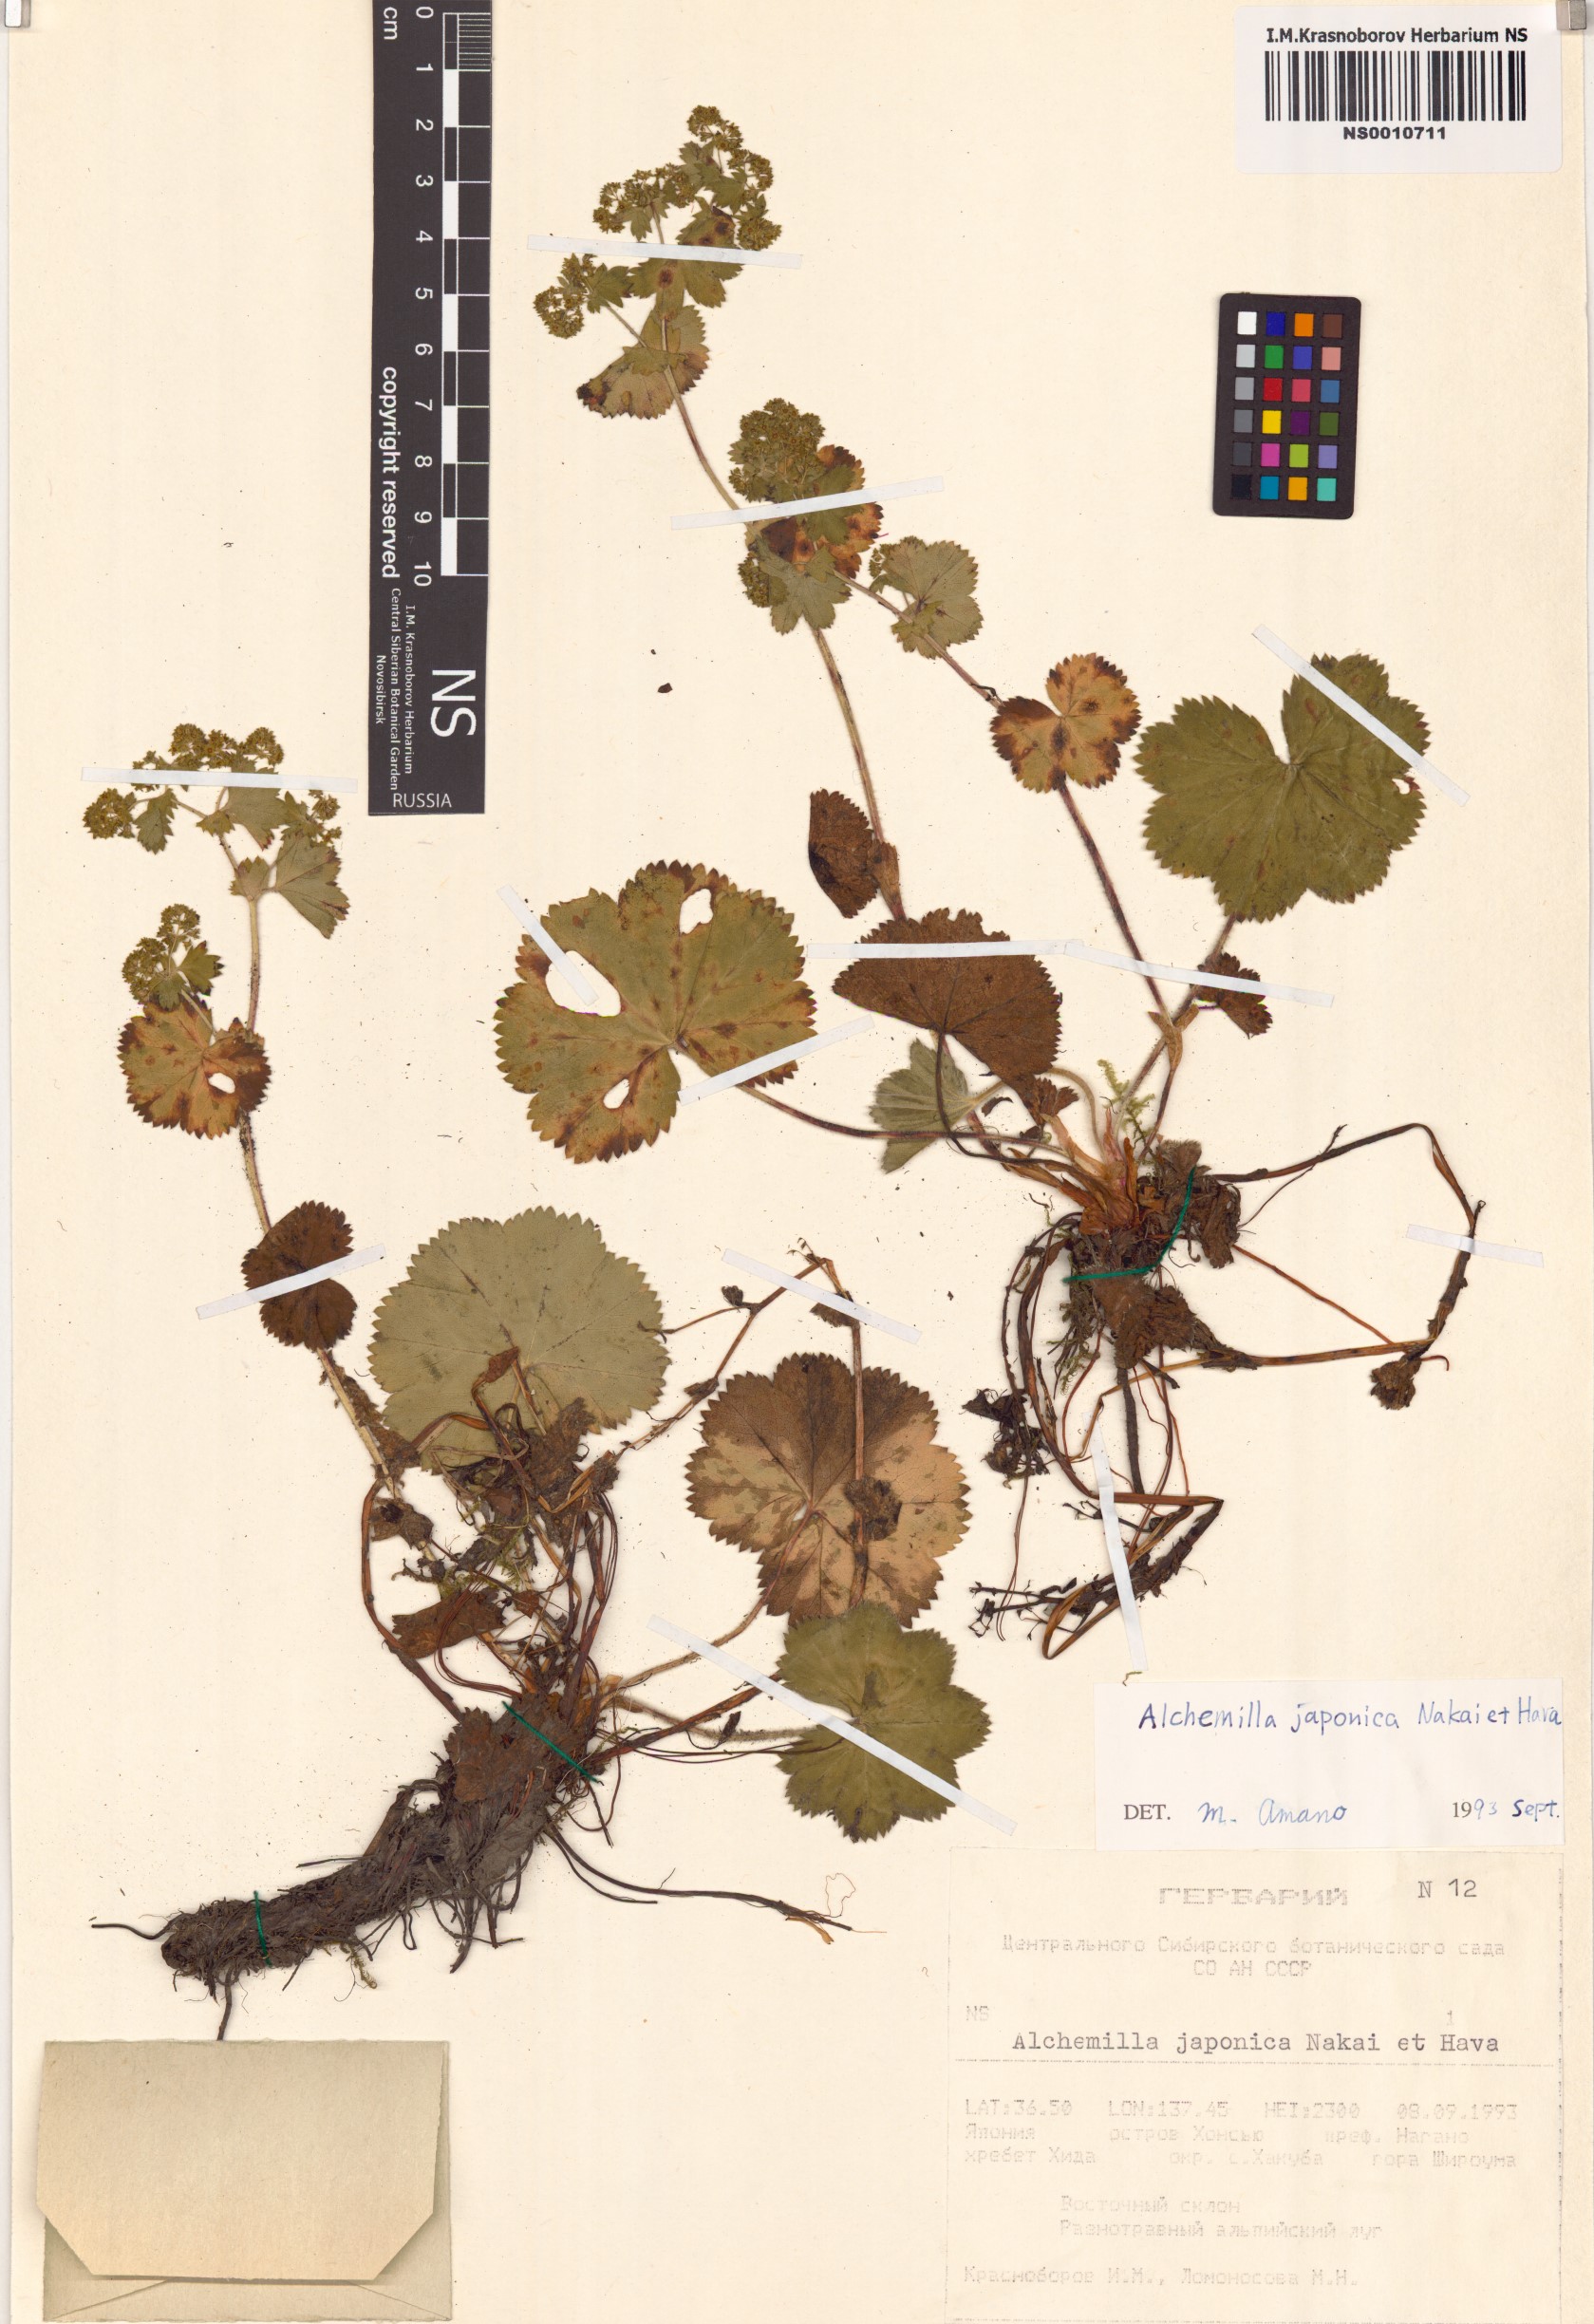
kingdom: Plantae
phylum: Tracheophyta
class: Magnoliopsida
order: Rosales
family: Rosaceae
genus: Alchemilla
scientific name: Alchemilla japonica
